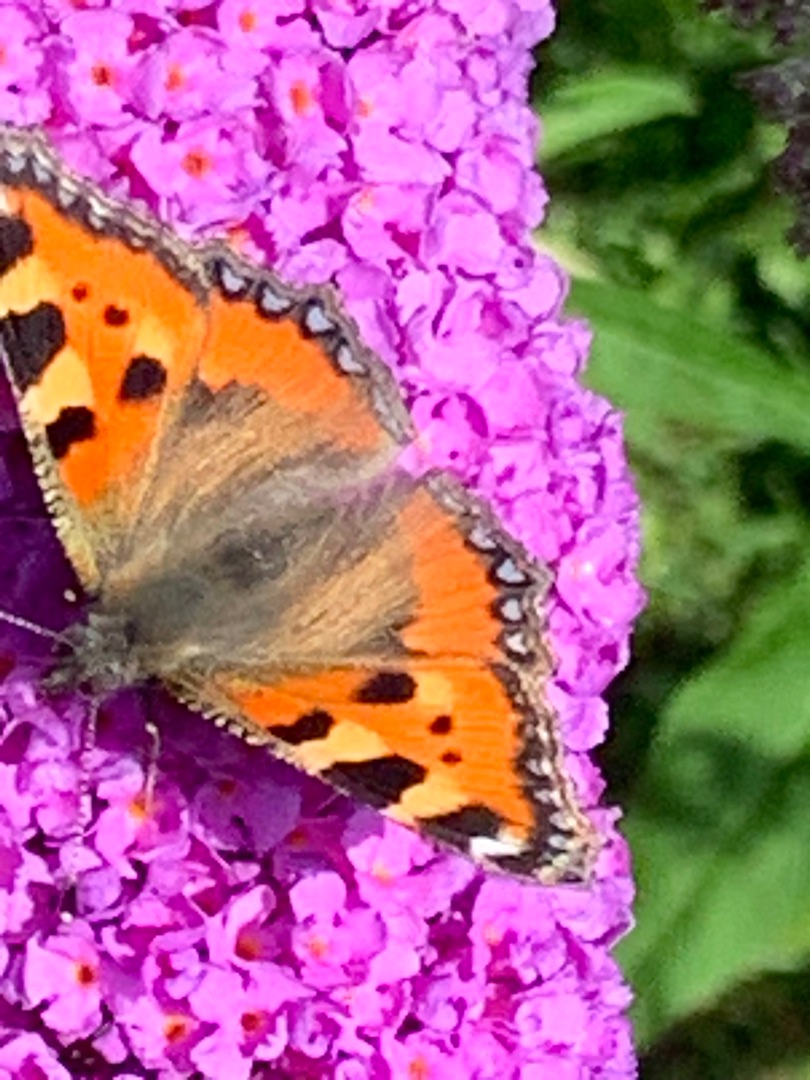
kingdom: Animalia
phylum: Arthropoda
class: Insecta
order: Lepidoptera
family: Nymphalidae
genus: Aglais
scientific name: Aglais urticae
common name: Nældens takvinge
